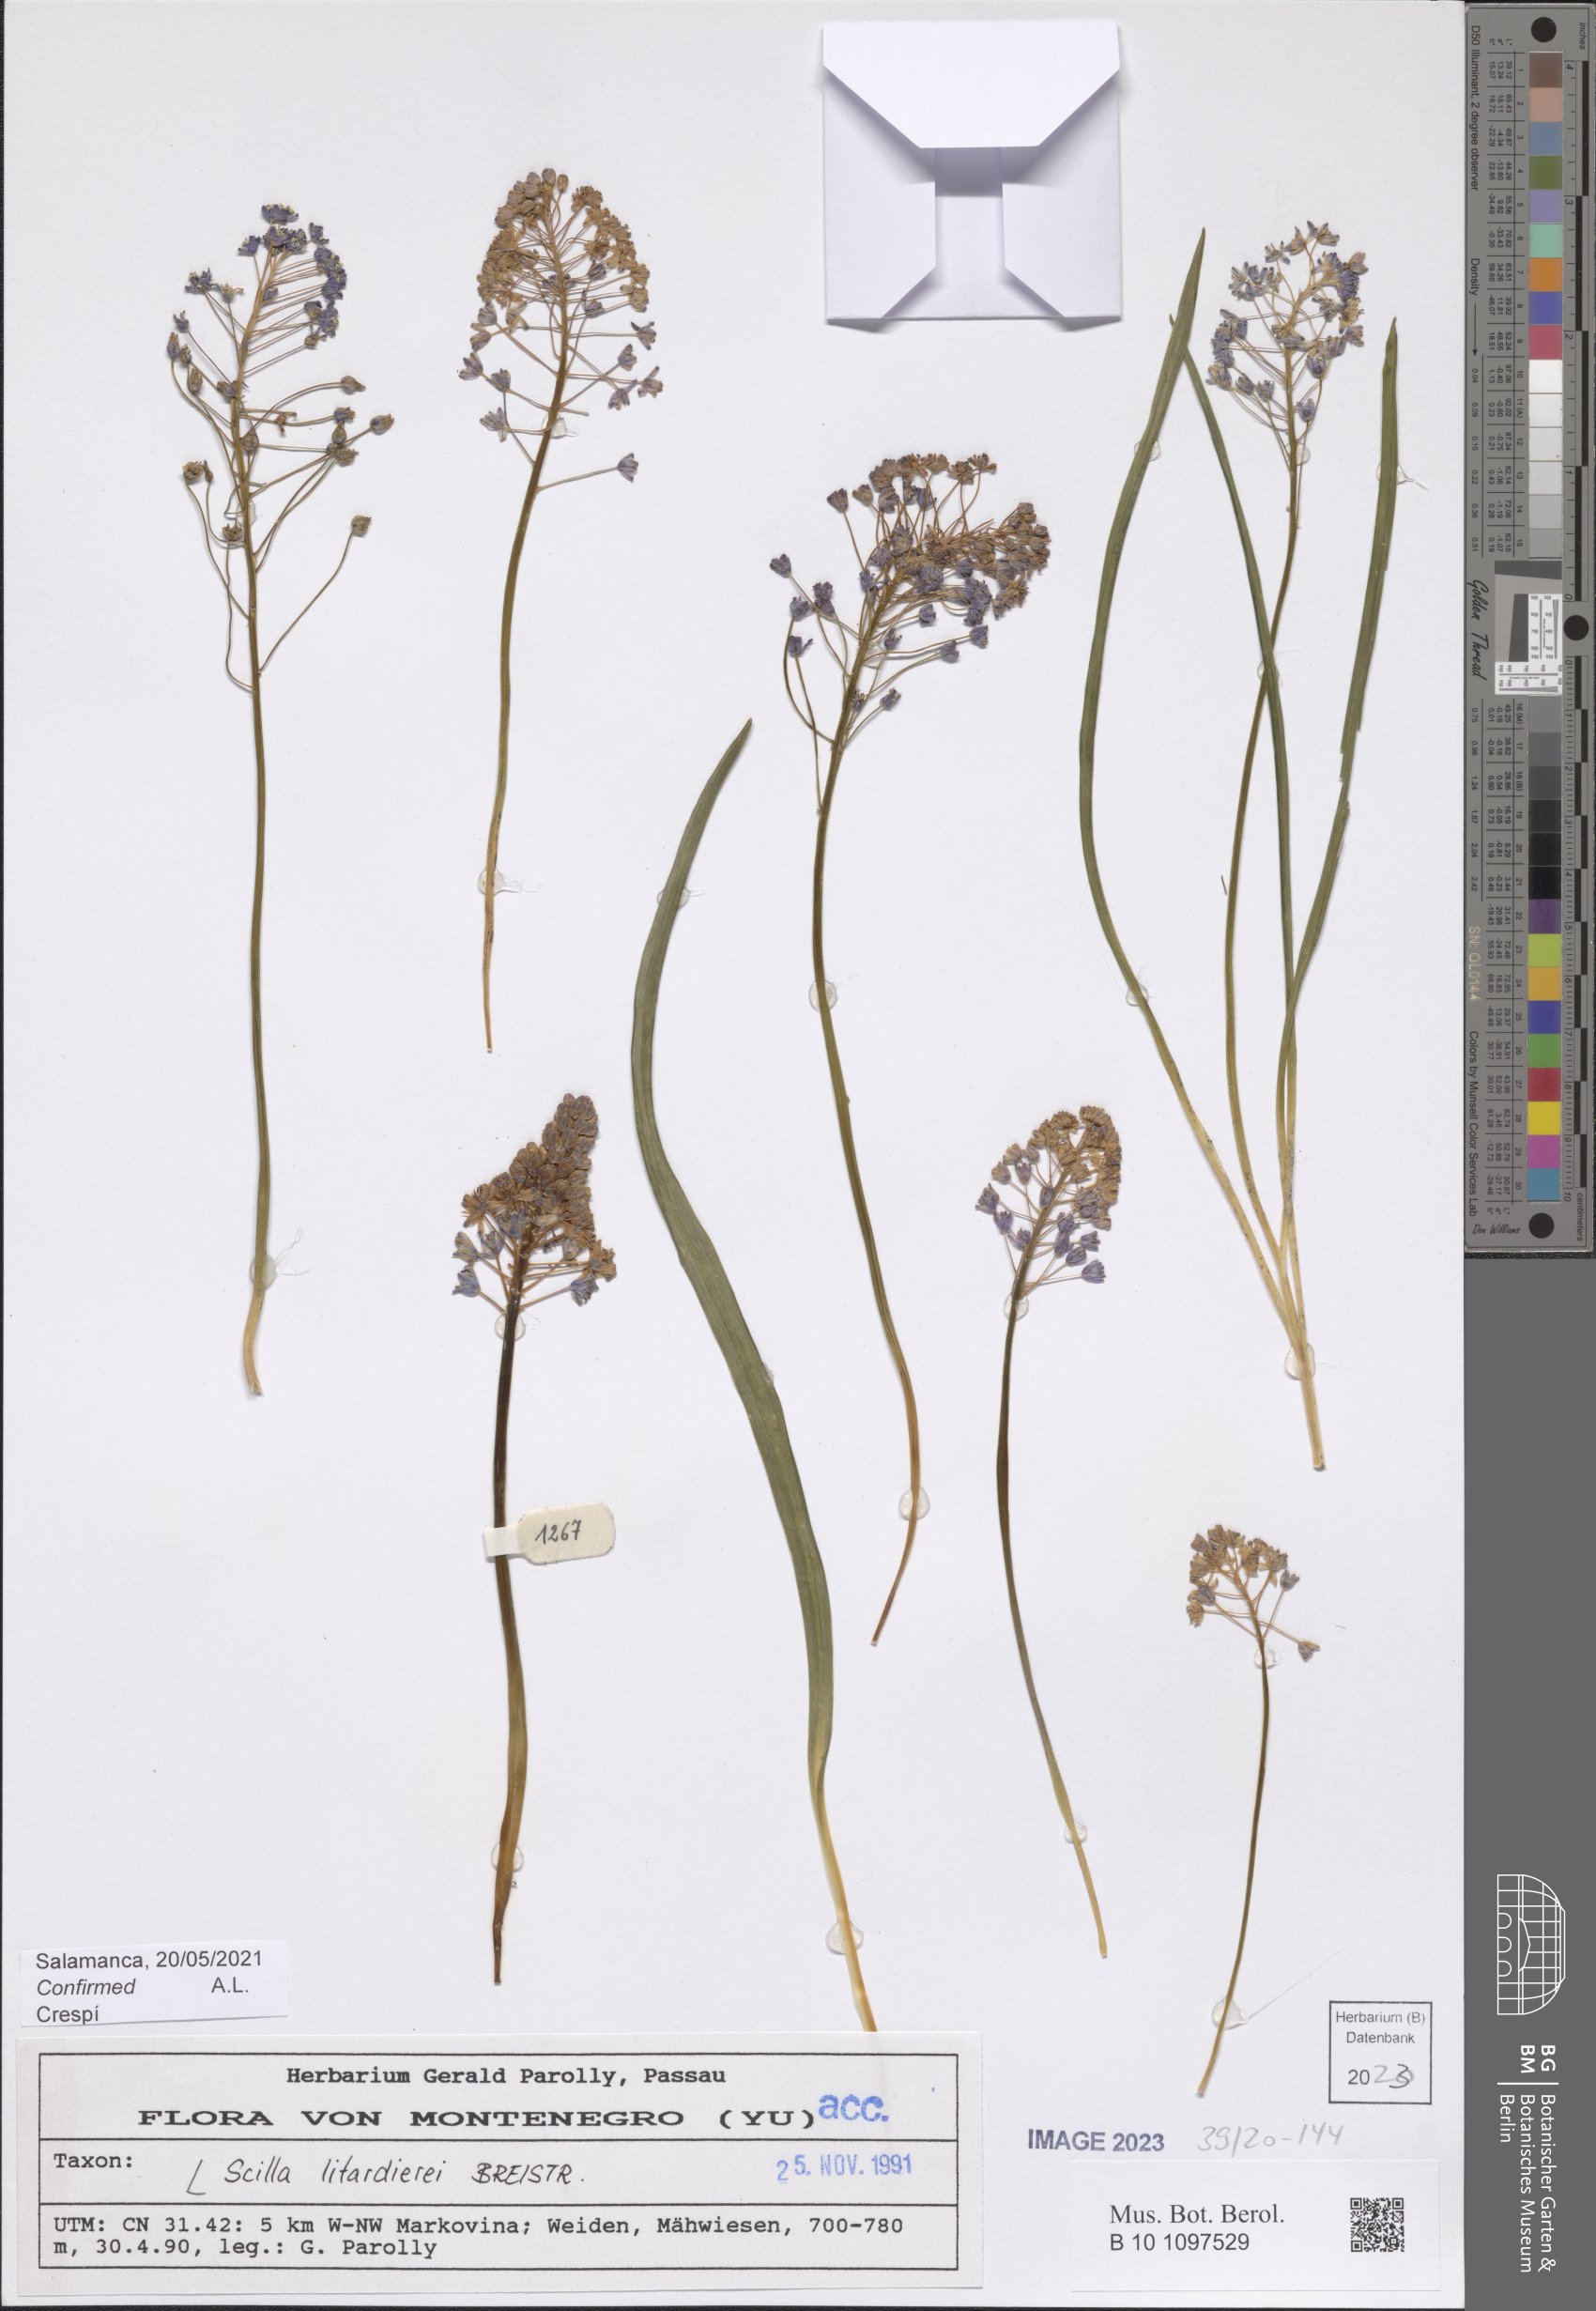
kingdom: Plantae
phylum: Tracheophyta
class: Liliopsida
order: Asparagales
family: Asparagaceae
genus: Scilla
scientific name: Scilla litardierei
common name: Amethyst meadow squill
